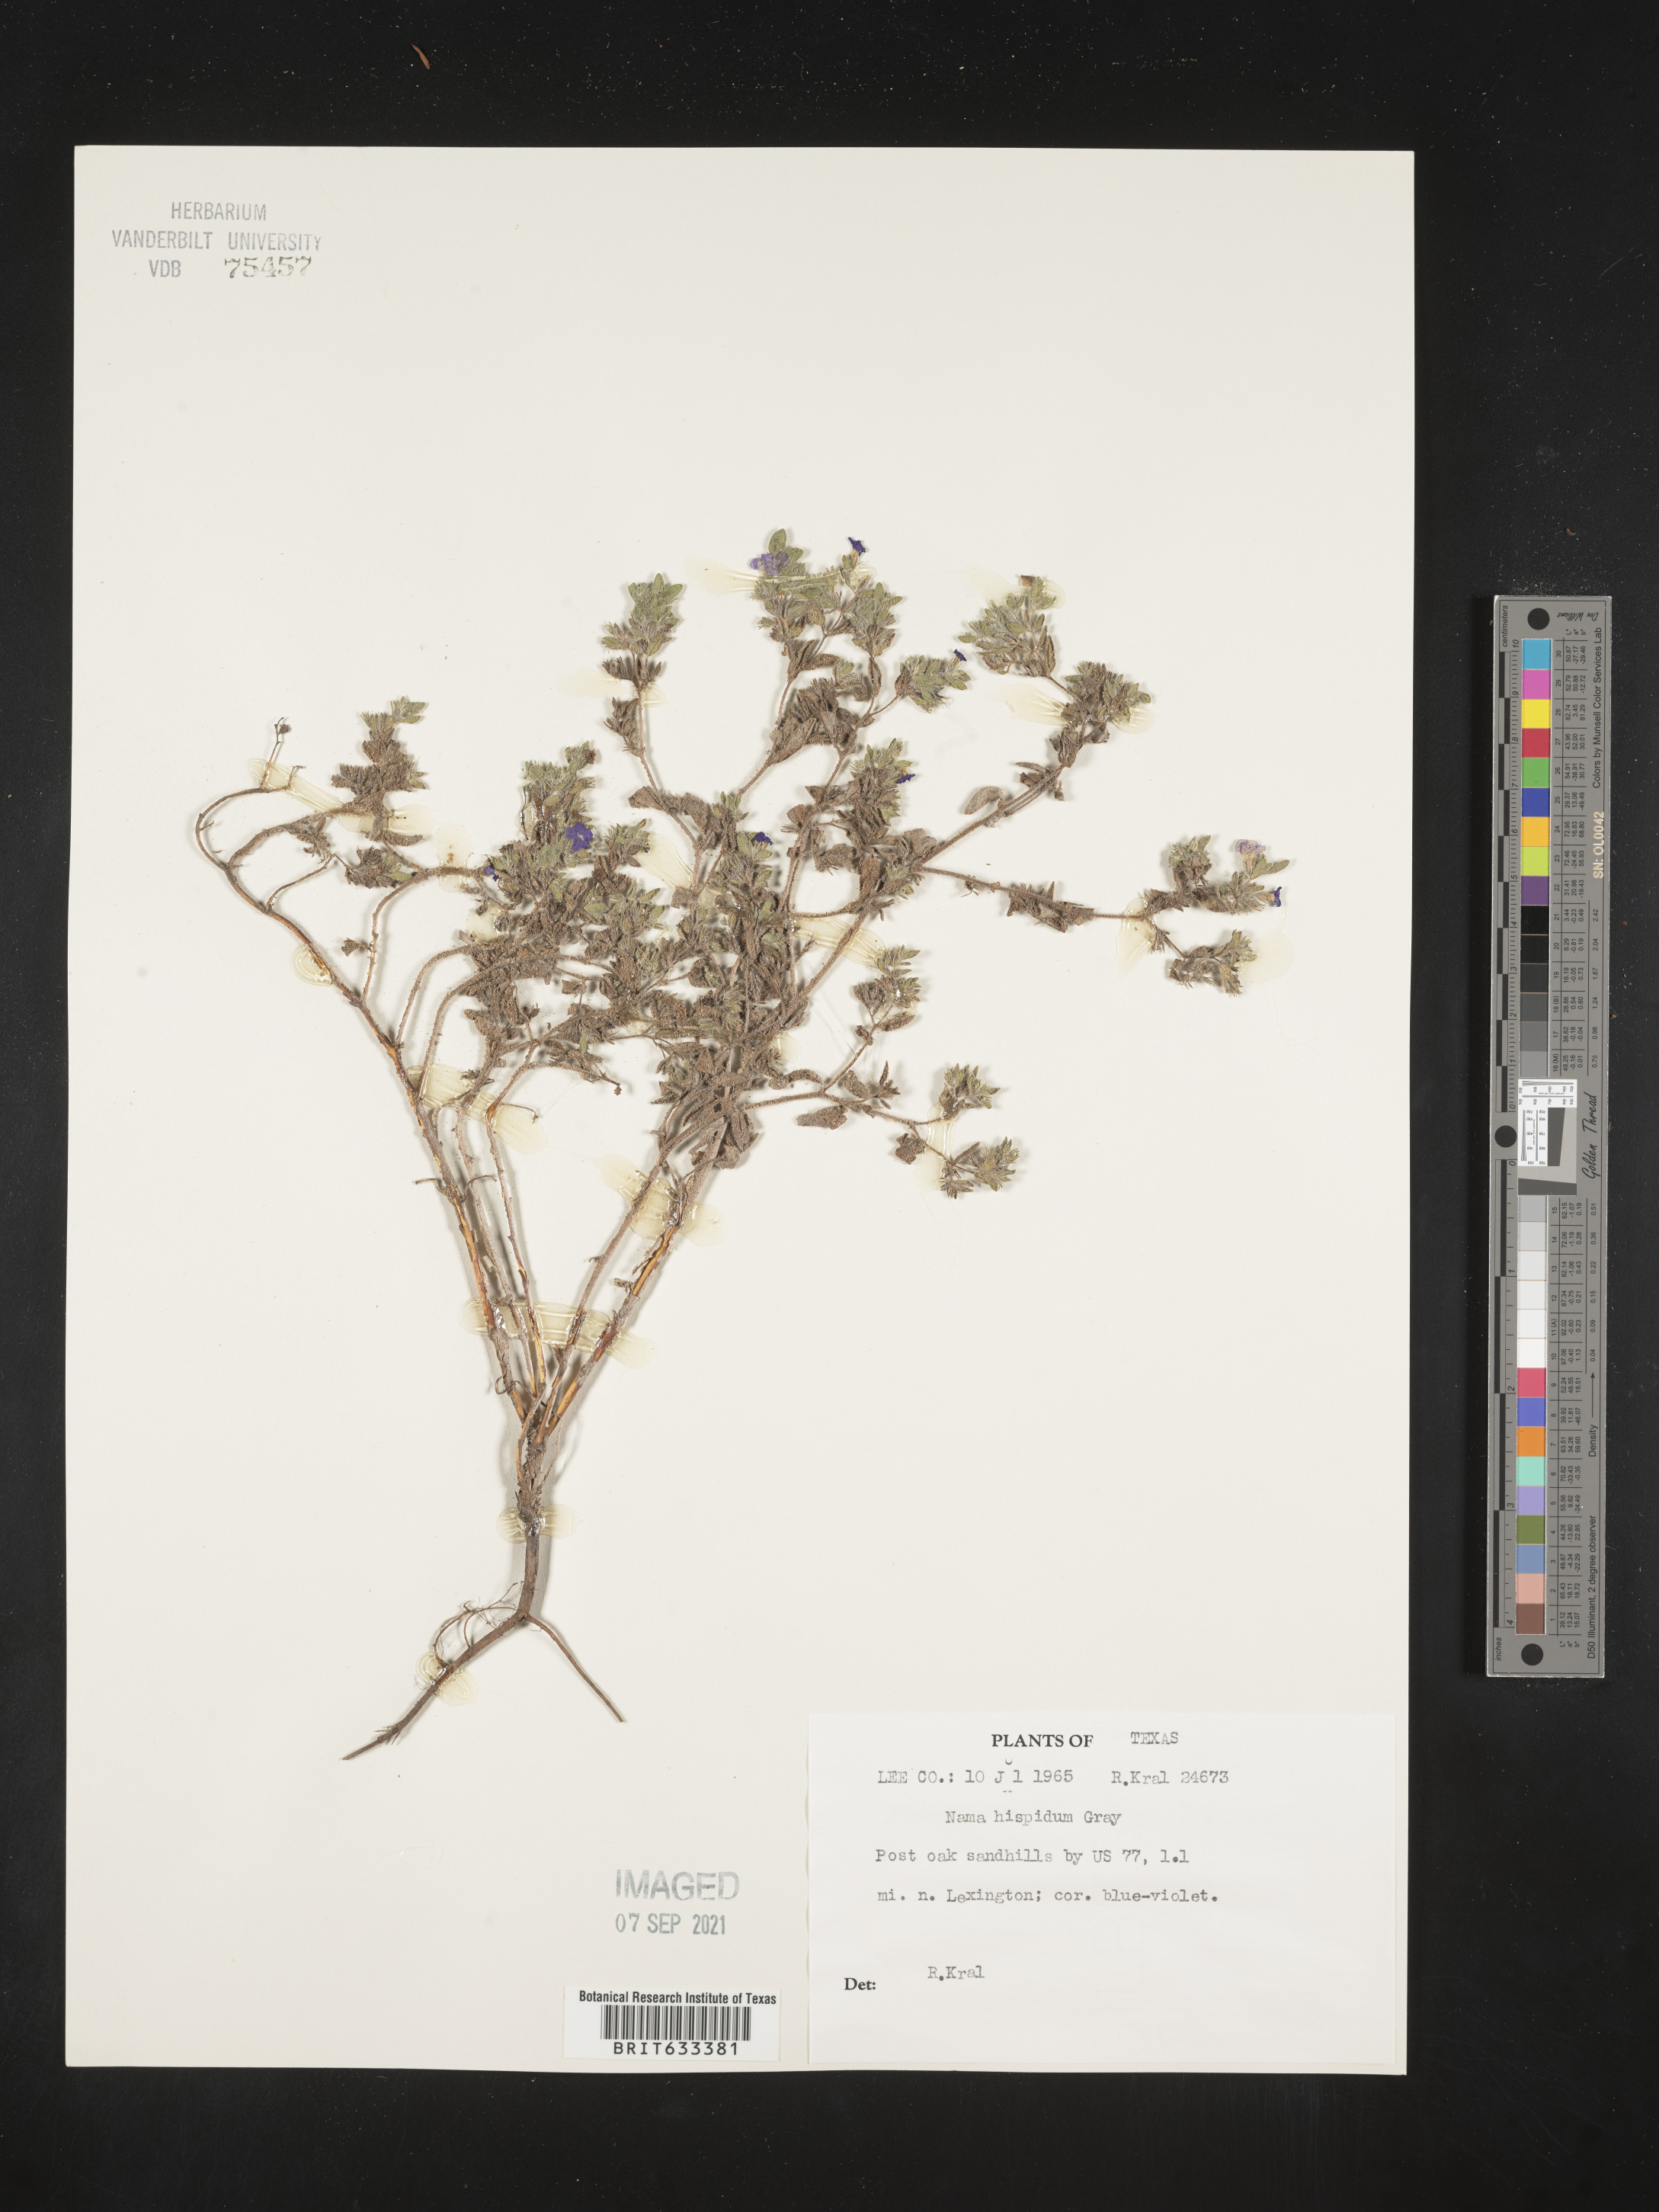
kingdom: Plantae
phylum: Tracheophyta
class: Magnoliopsida
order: Boraginales
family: Namaceae
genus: Nama
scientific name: Nama hispida
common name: Bristly nama
